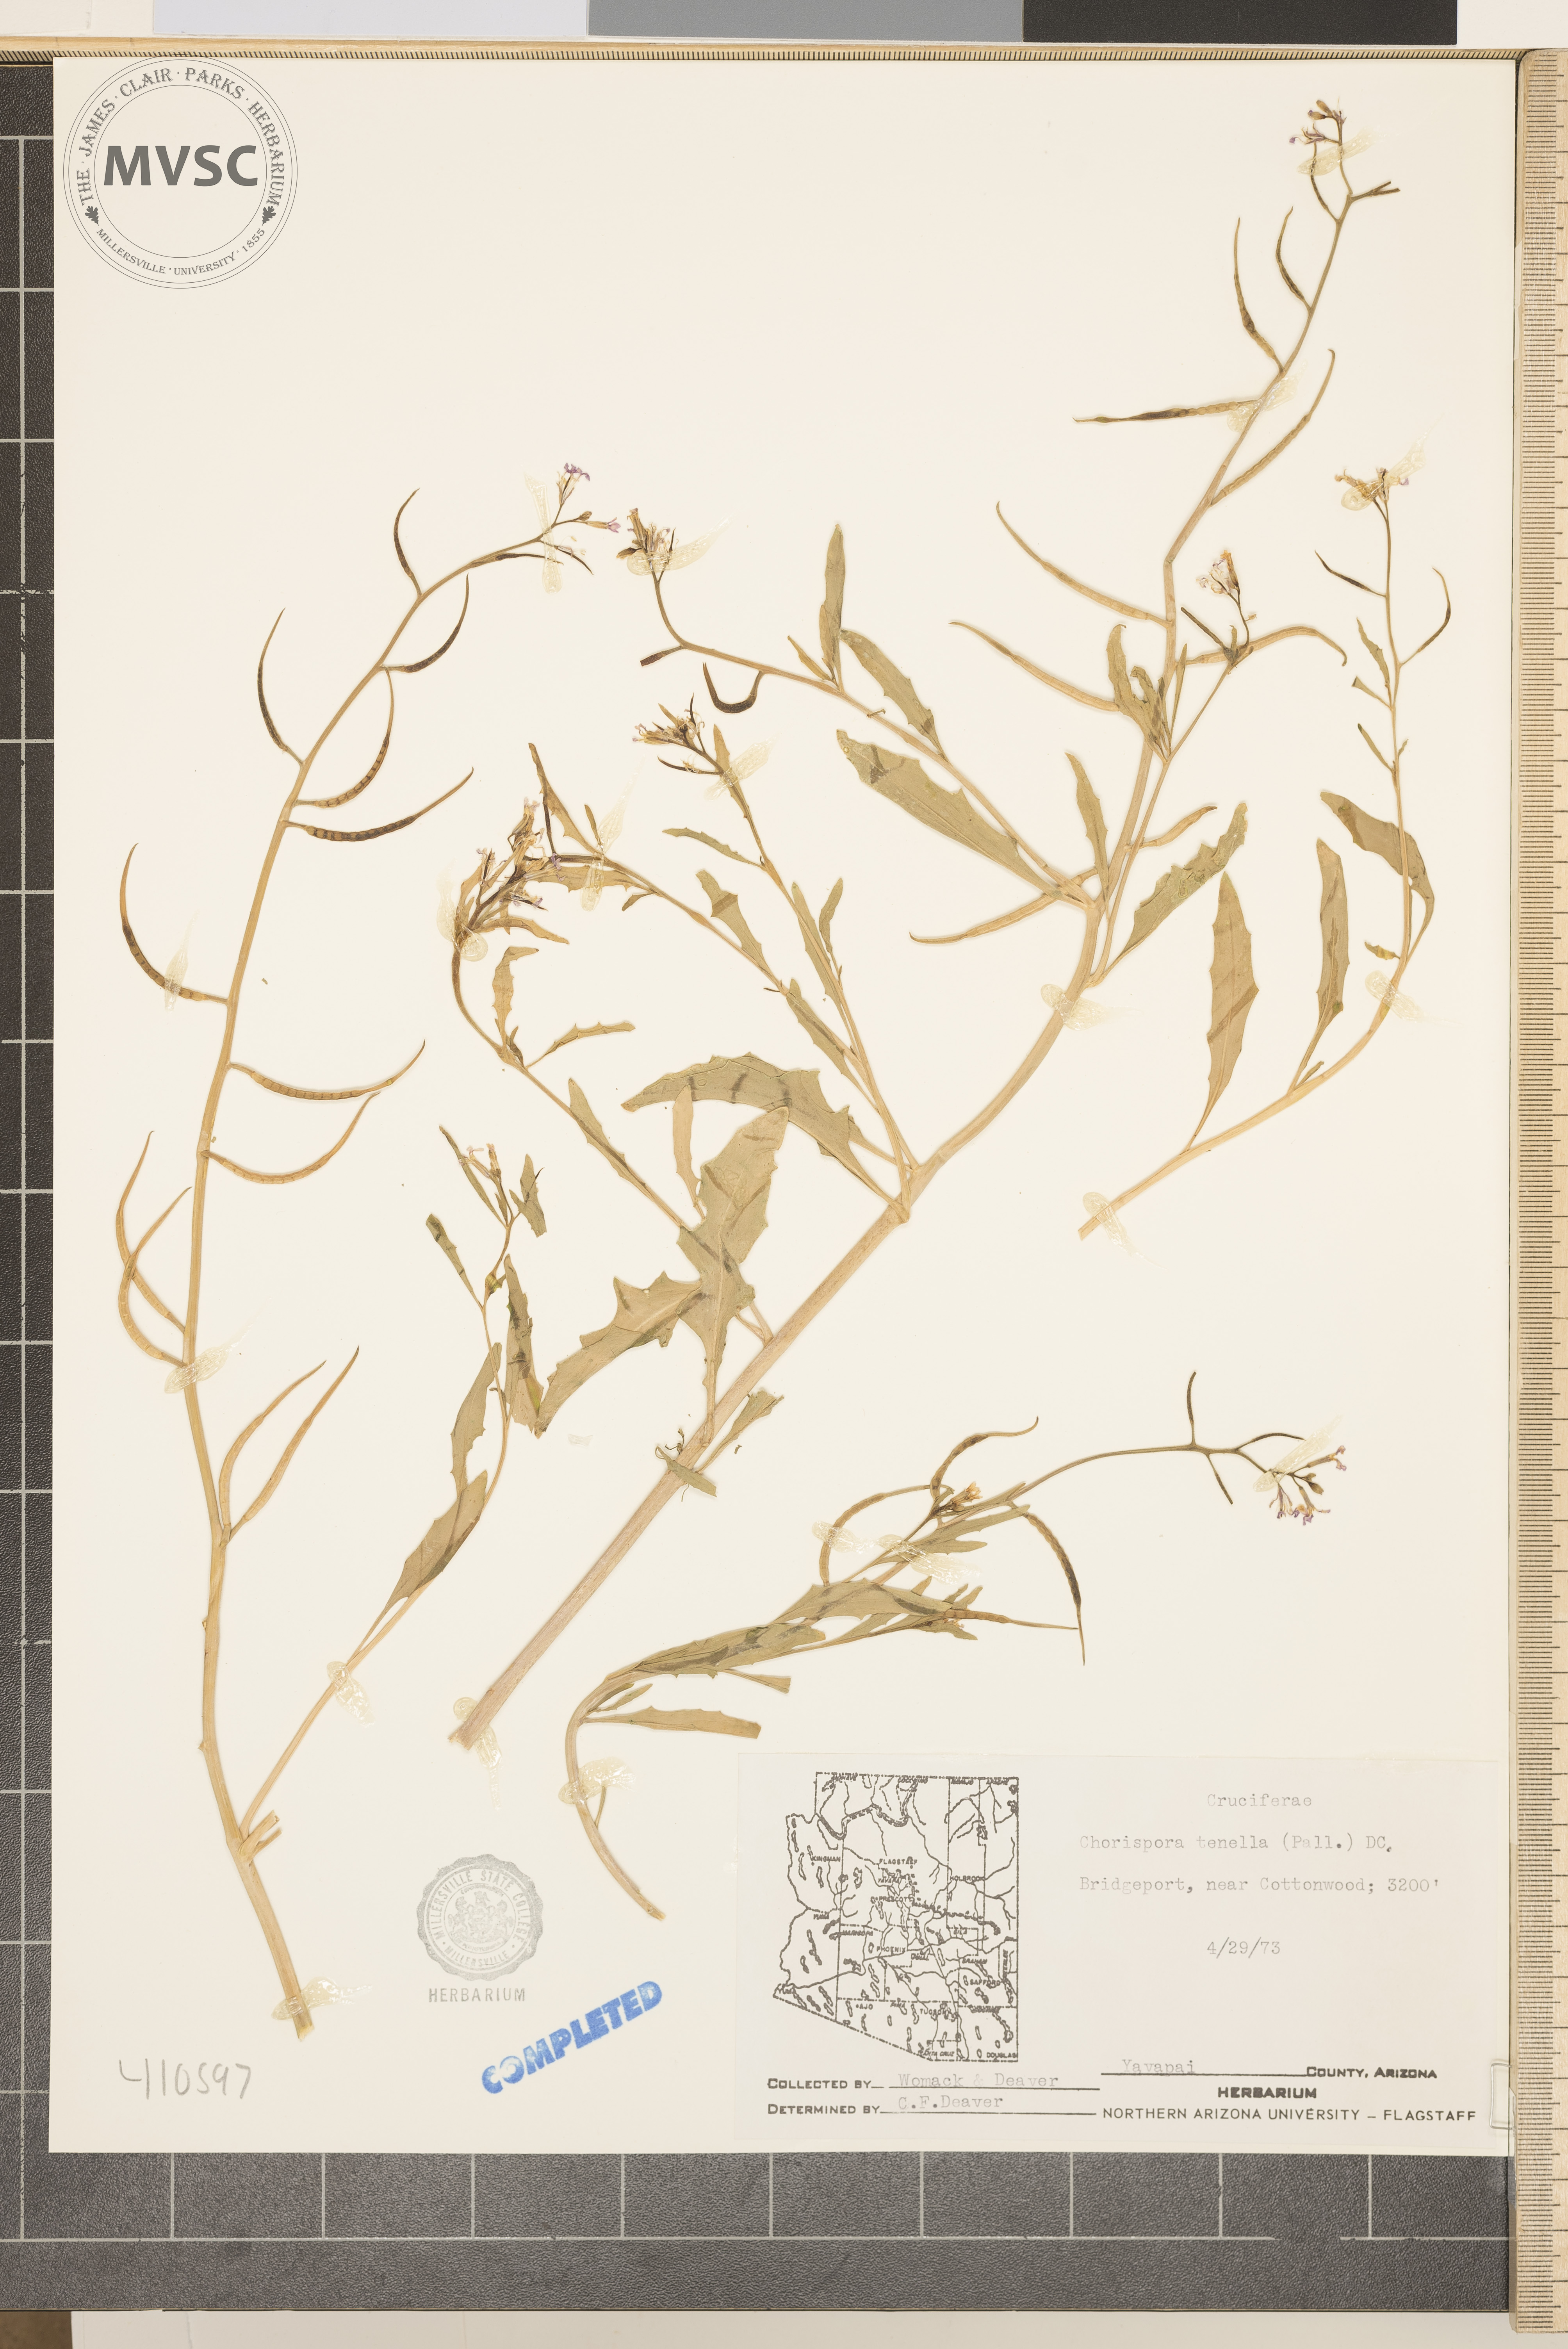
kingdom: Plantae
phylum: Tracheophyta
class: Magnoliopsida
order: Brassicales
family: Brassicaceae
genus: Chorispora
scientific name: Chorispora tenella
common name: Crossflower
